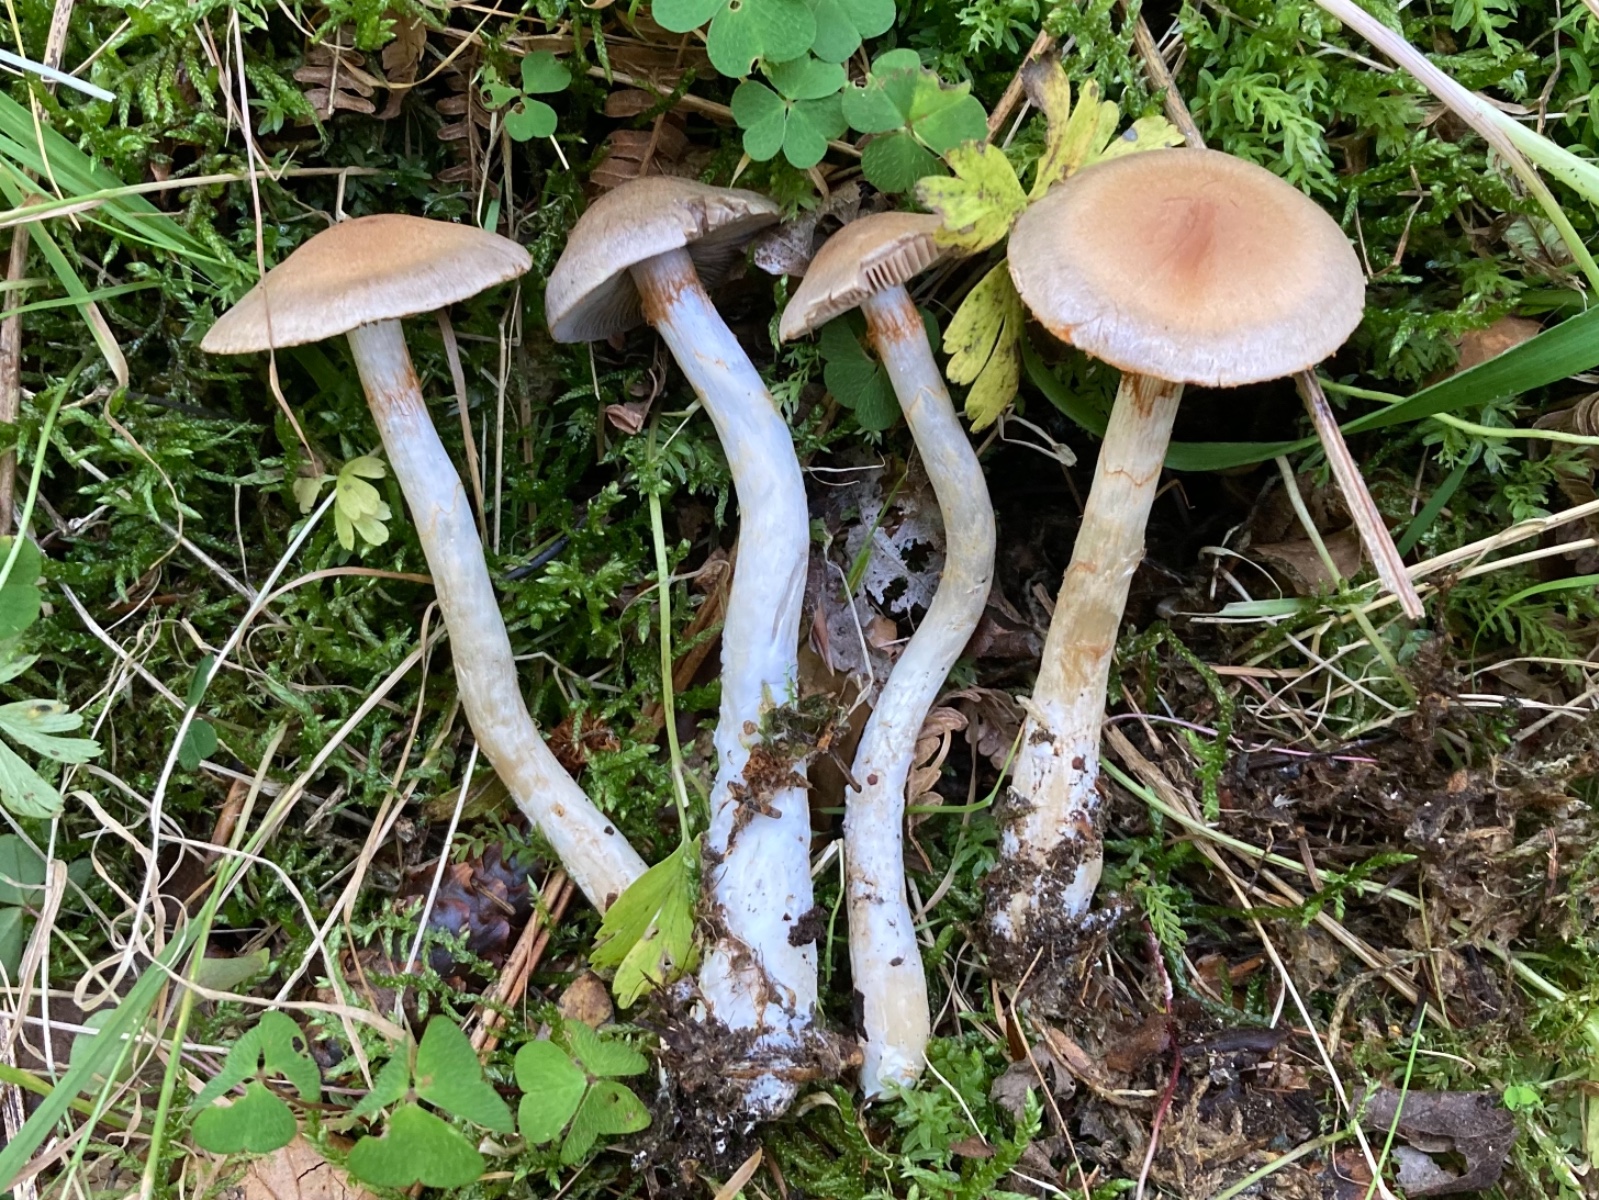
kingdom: Fungi
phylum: Basidiomycota
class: Agaricomycetes
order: Agaricales
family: Cortinariaceae
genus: Cortinarius
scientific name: Cortinarius anomalus
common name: Variable webcap
